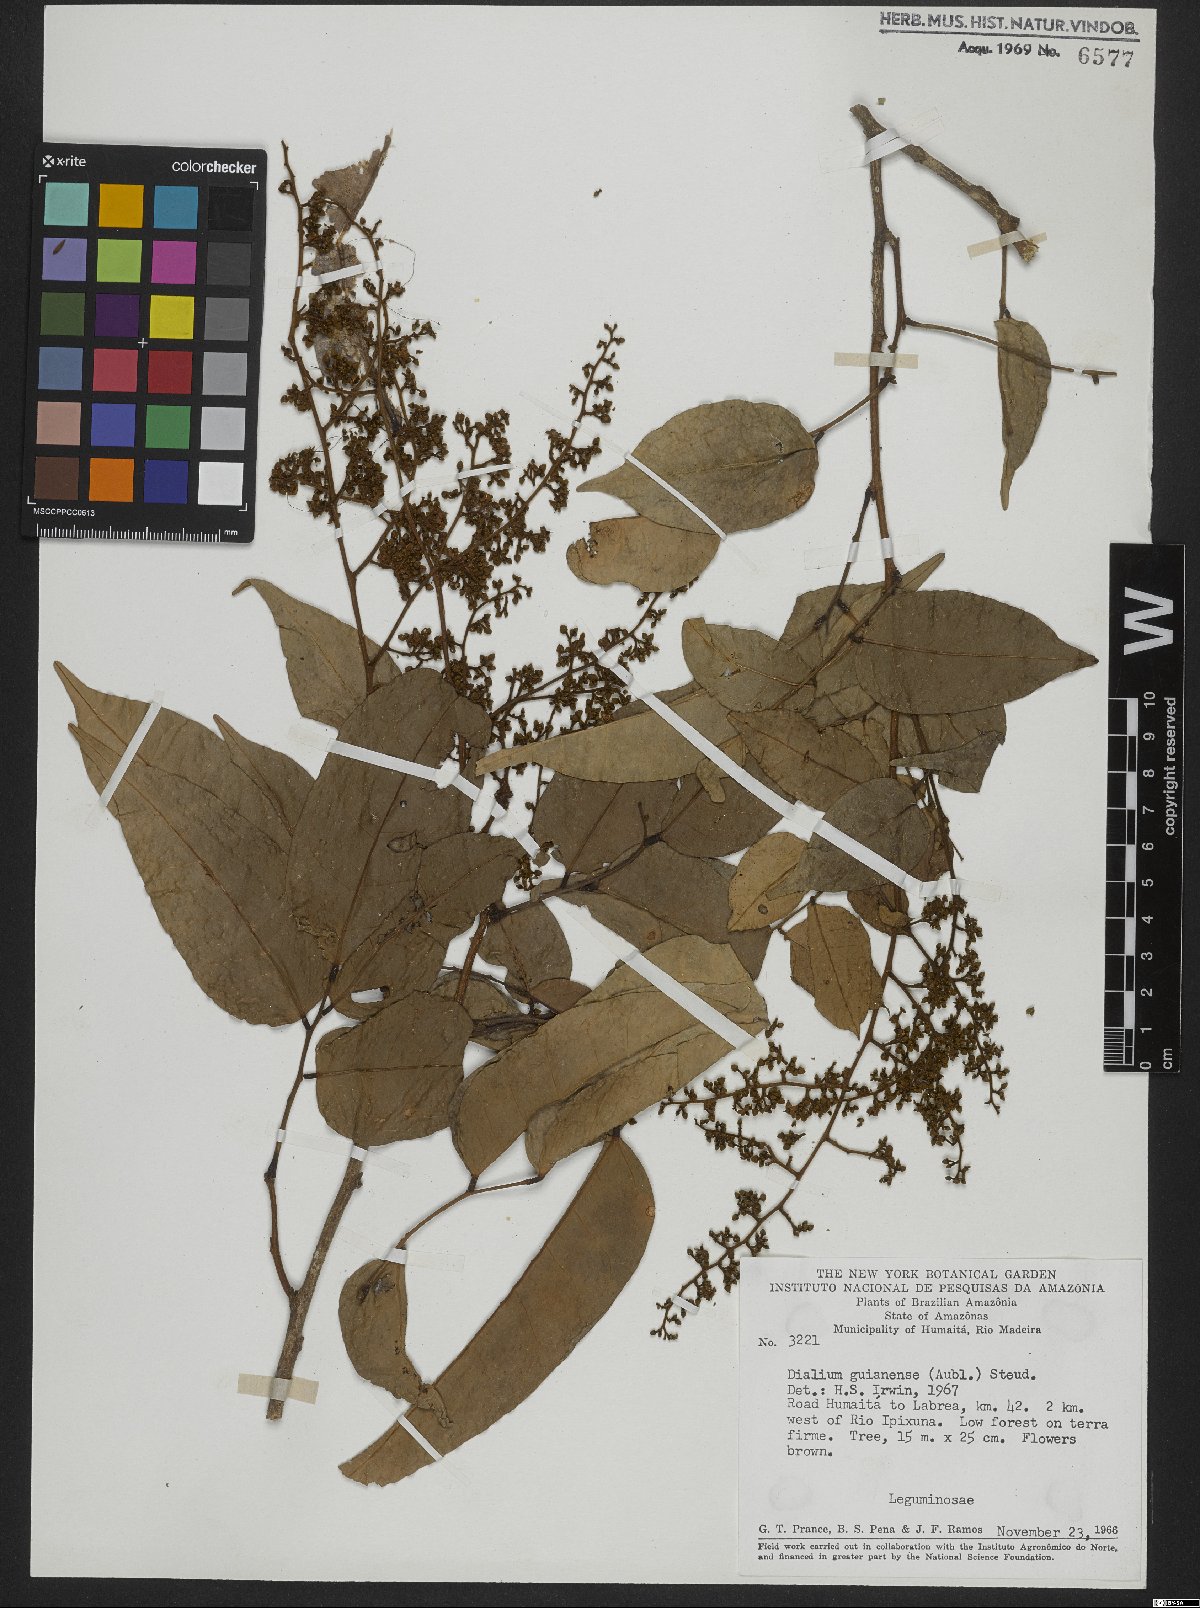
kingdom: Plantae
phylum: Tracheophyta
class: Magnoliopsida
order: Fabales
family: Fabaceae
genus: Dialium
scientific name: Dialium guianense
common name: Ironwood
